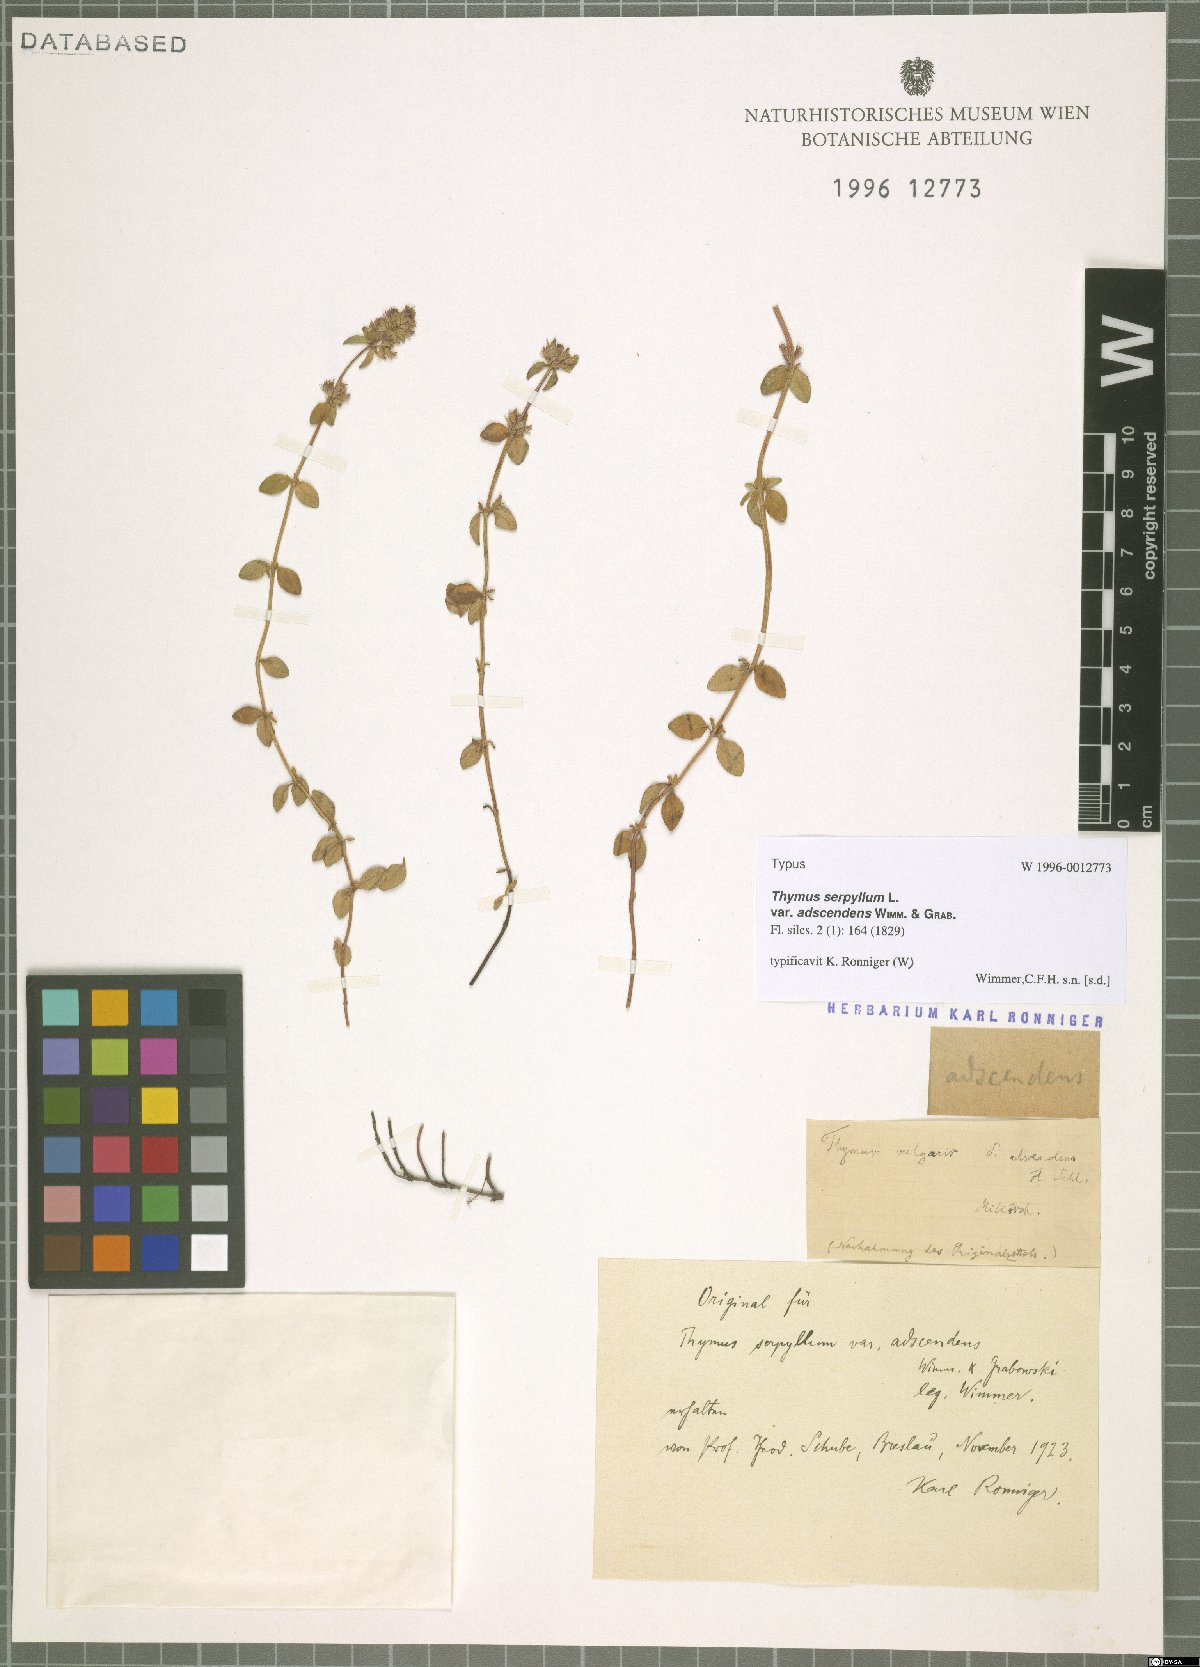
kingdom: Plantae
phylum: Tracheophyta
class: Magnoliopsida
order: Lamiales
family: Lamiaceae
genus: Thymus
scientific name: Thymus pulegioides
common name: Large thyme
